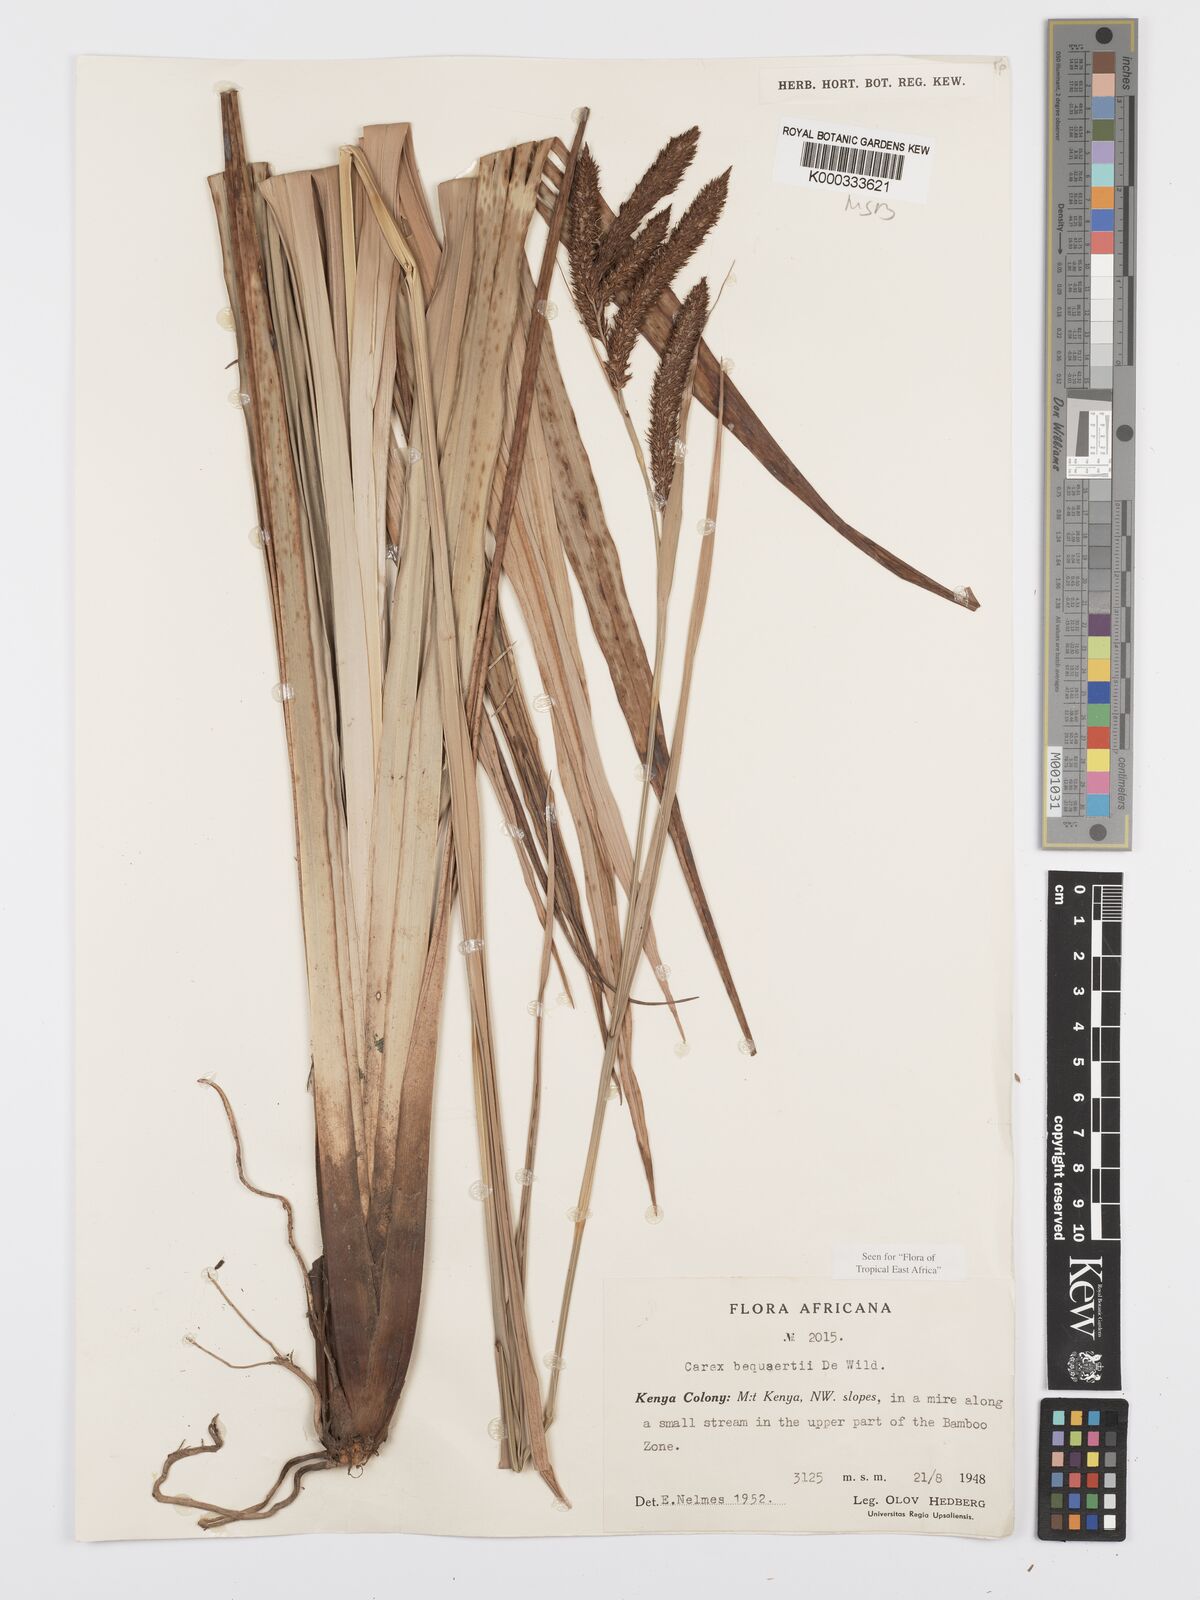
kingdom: Plantae
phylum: Tracheophyta
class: Liliopsida
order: Poales
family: Cyperaceae
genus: Carex
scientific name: Carex bequaertii
